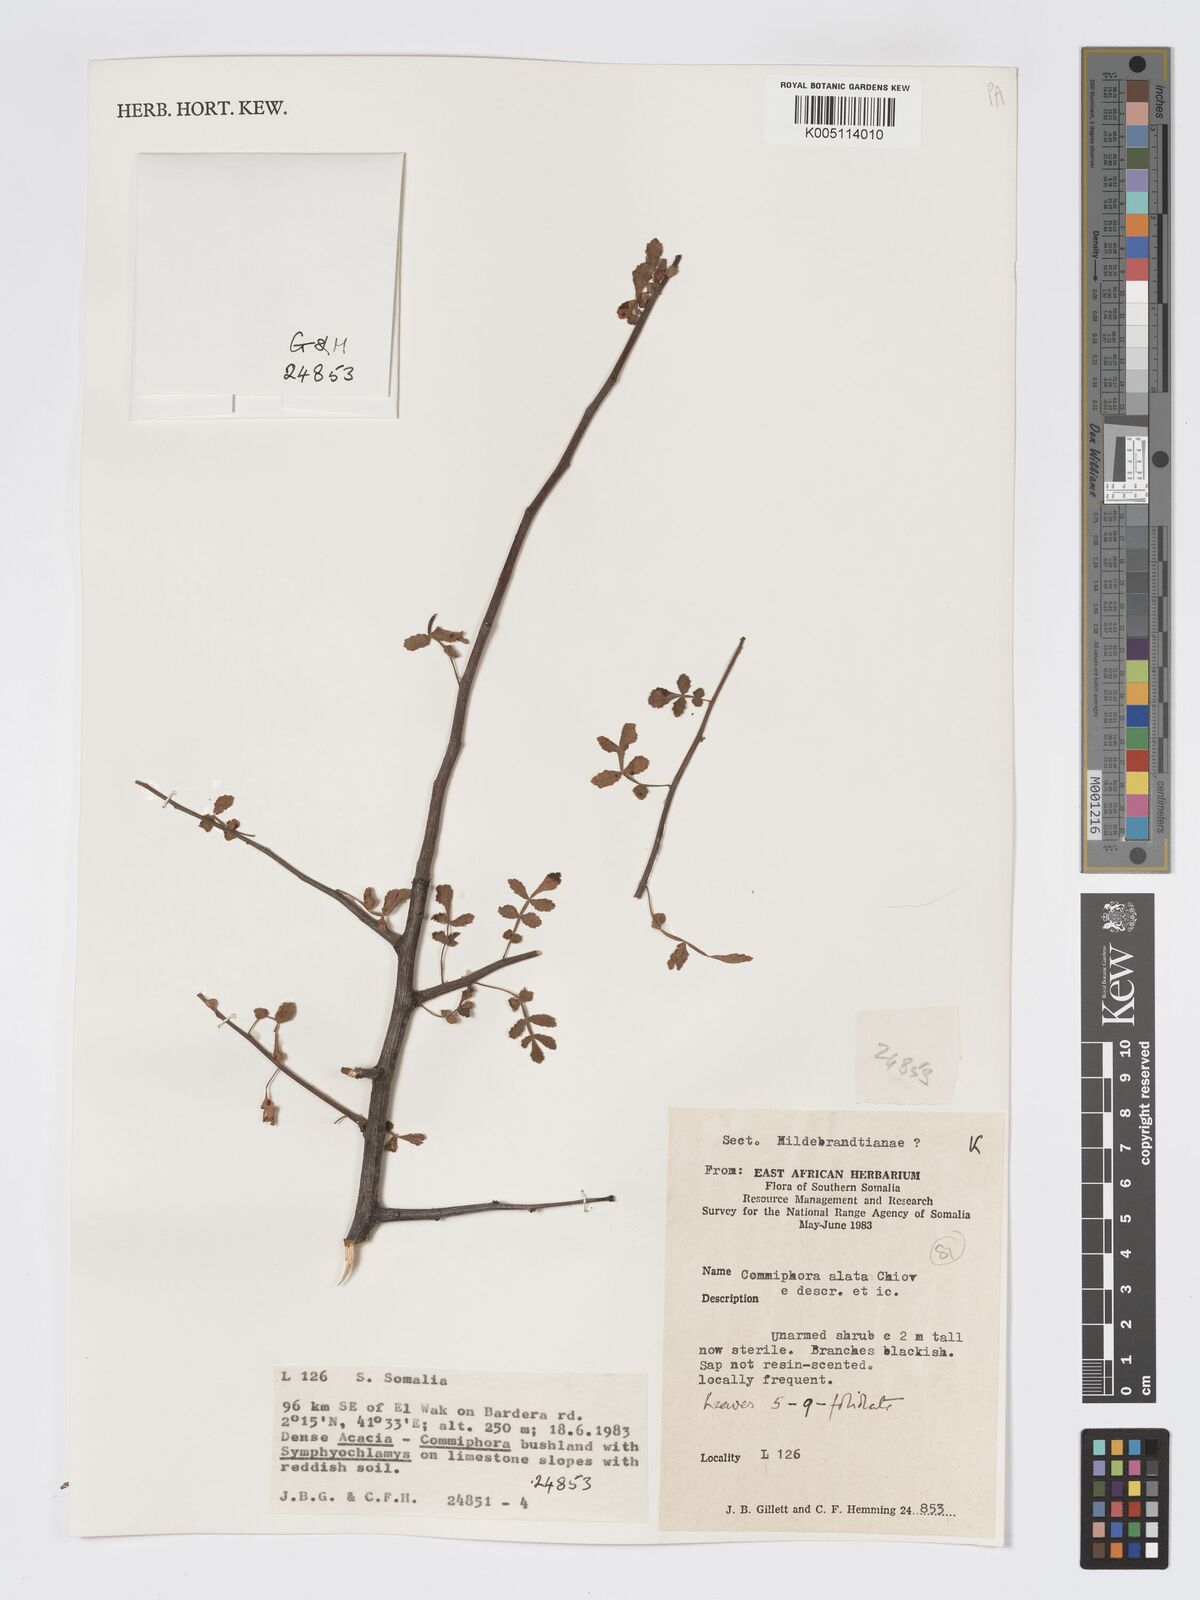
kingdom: Plantae
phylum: Tracheophyta
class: Magnoliopsida
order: Sapindales
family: Burseraceae
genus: Commiphora
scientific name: Commiphora alata
